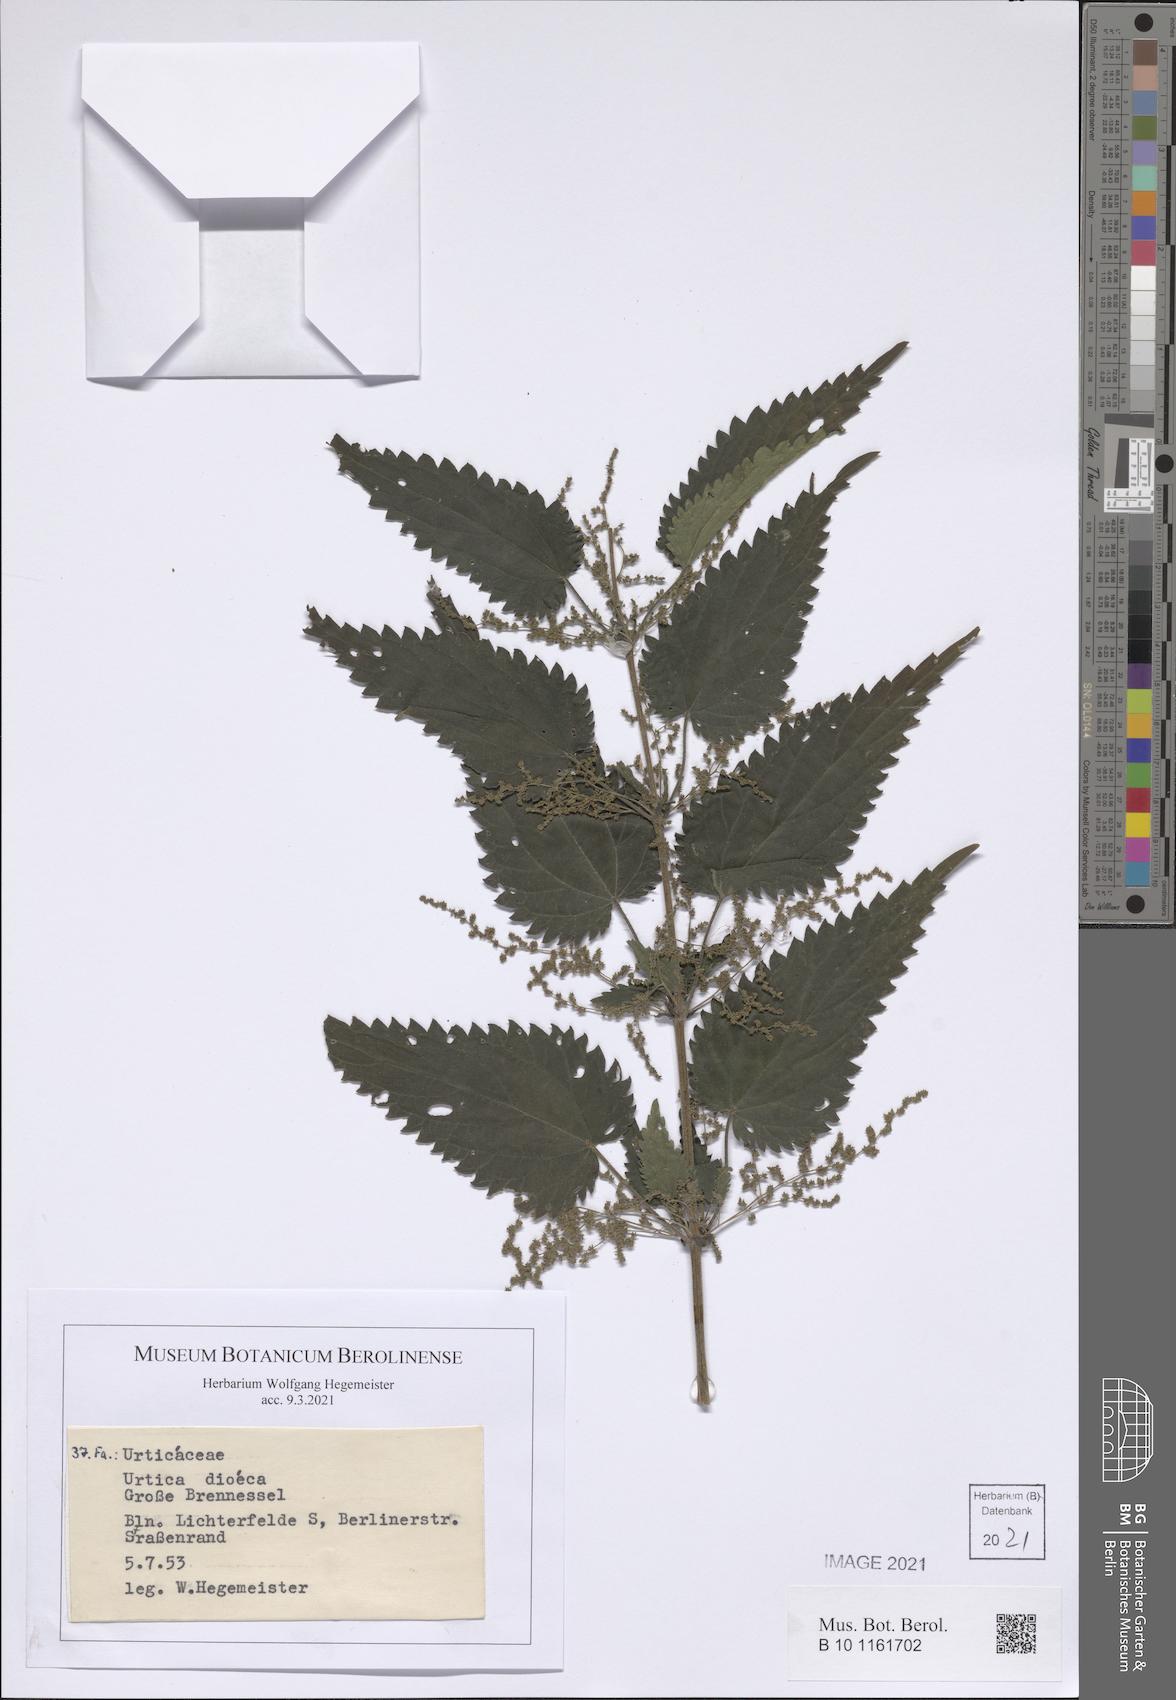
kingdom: Plantae
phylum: Tracheophyta
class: Magnoliopsida
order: Rosales
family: Urticaceae
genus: Urtica
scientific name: Urtica dioica
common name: Common nettle
